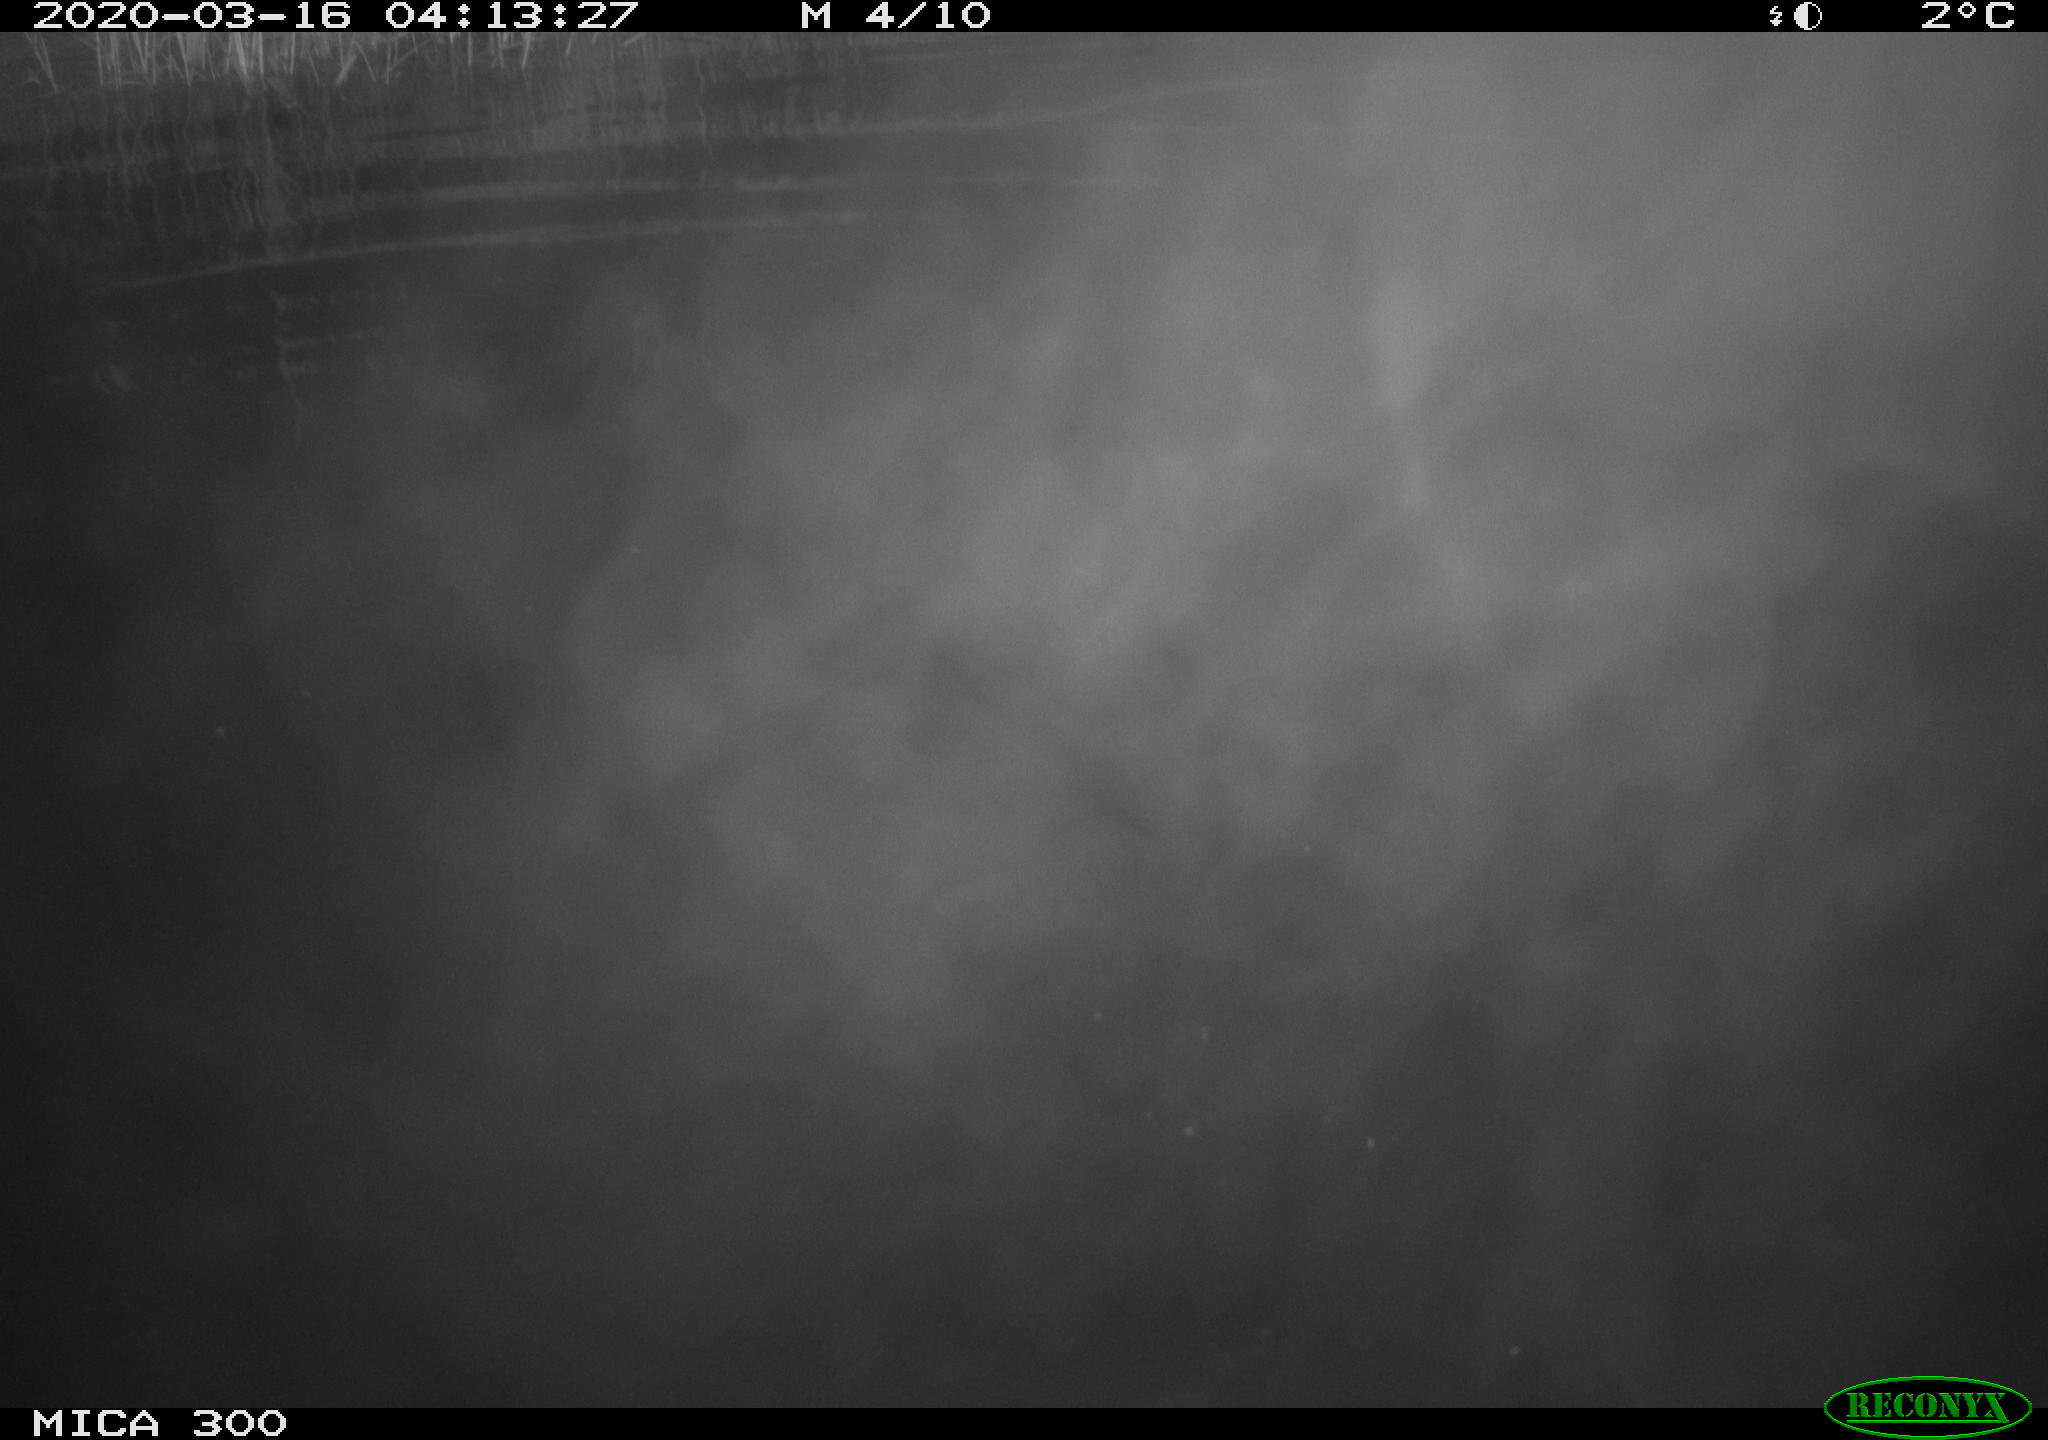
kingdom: Animalia
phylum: Chordata
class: Mammalia
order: Rodentia
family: Castoridae
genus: Castor
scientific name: Castor fiber
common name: Eurasian beaver
